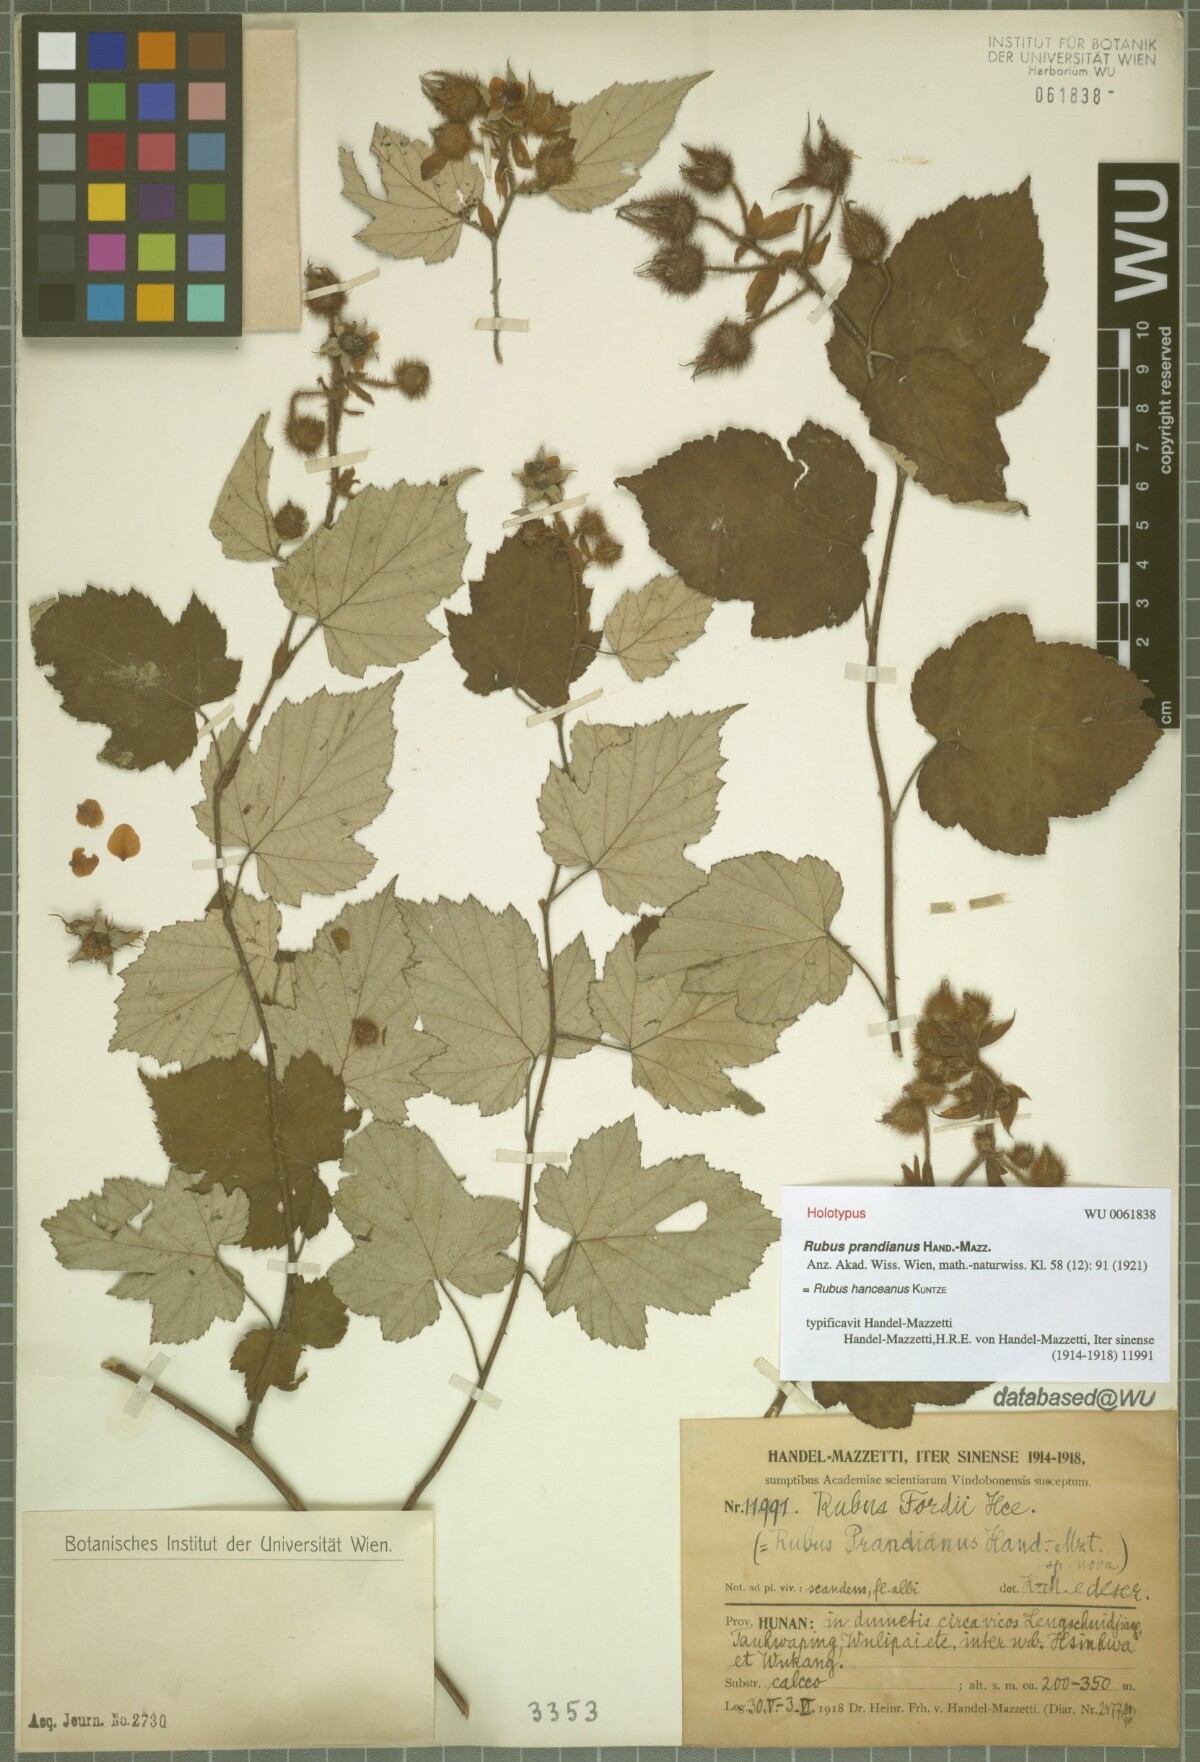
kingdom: Plantae
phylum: Tracheophyta
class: Magnoliopsida
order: Rosales
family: Rosaceae
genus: Rubus
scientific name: Rubus hanceanus
